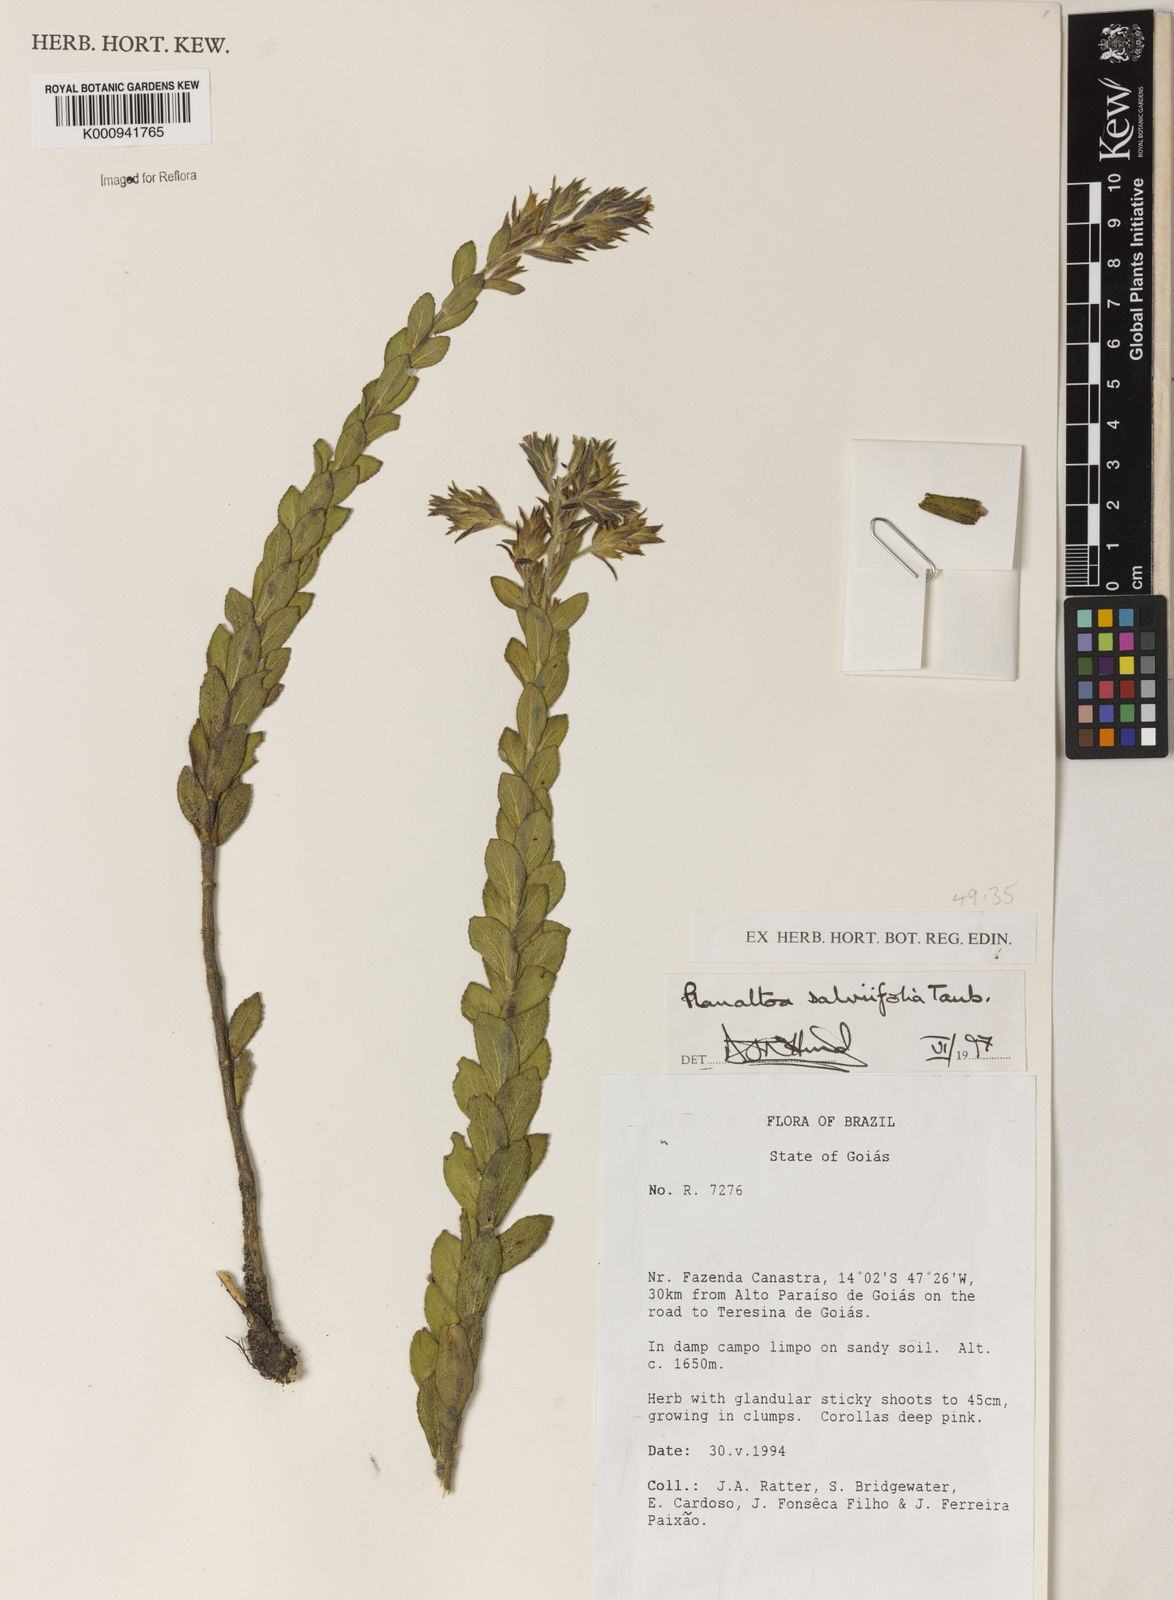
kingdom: Plantae
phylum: Tracheophyta
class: Magnoliopsida
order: Asterales
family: Asteraceae
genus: Planaltoa
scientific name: Planaltoa salviifolia
